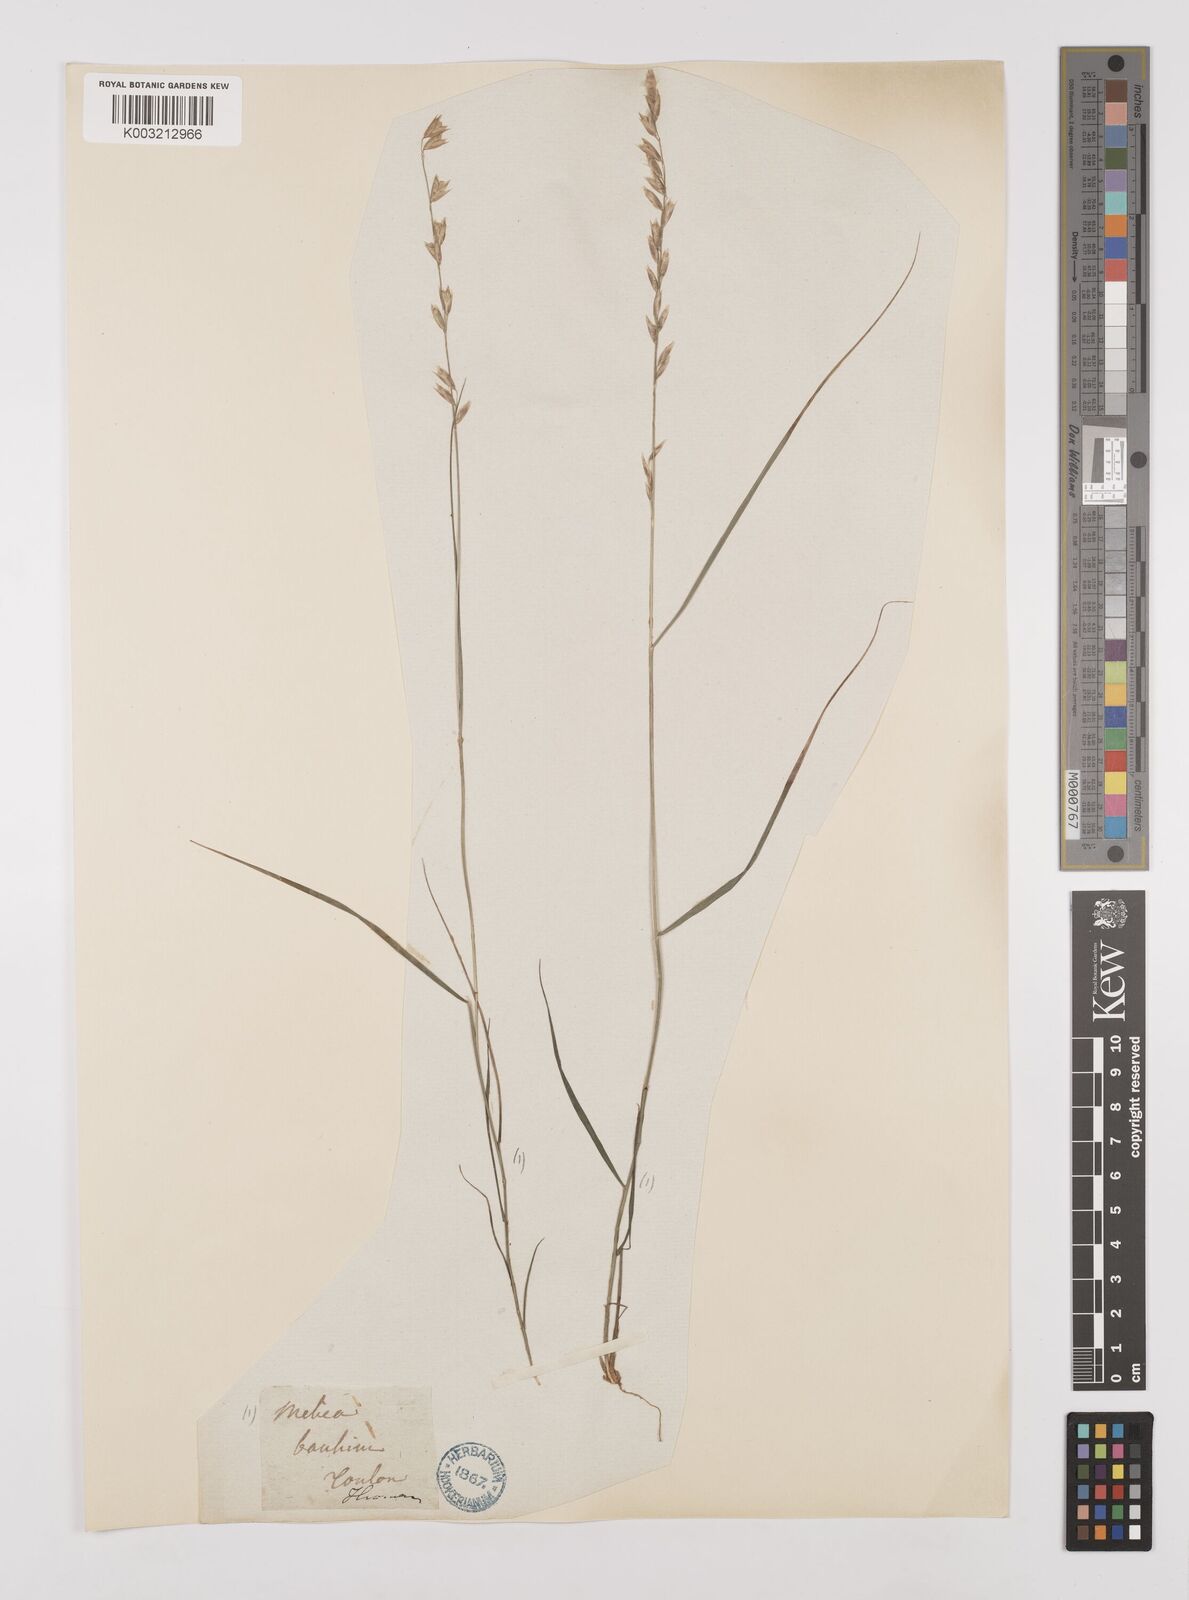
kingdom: Plantae
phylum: Tracheophyta
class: Liliopsida
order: Poales
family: Poaceae
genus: Melica
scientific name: Melica amethystina
